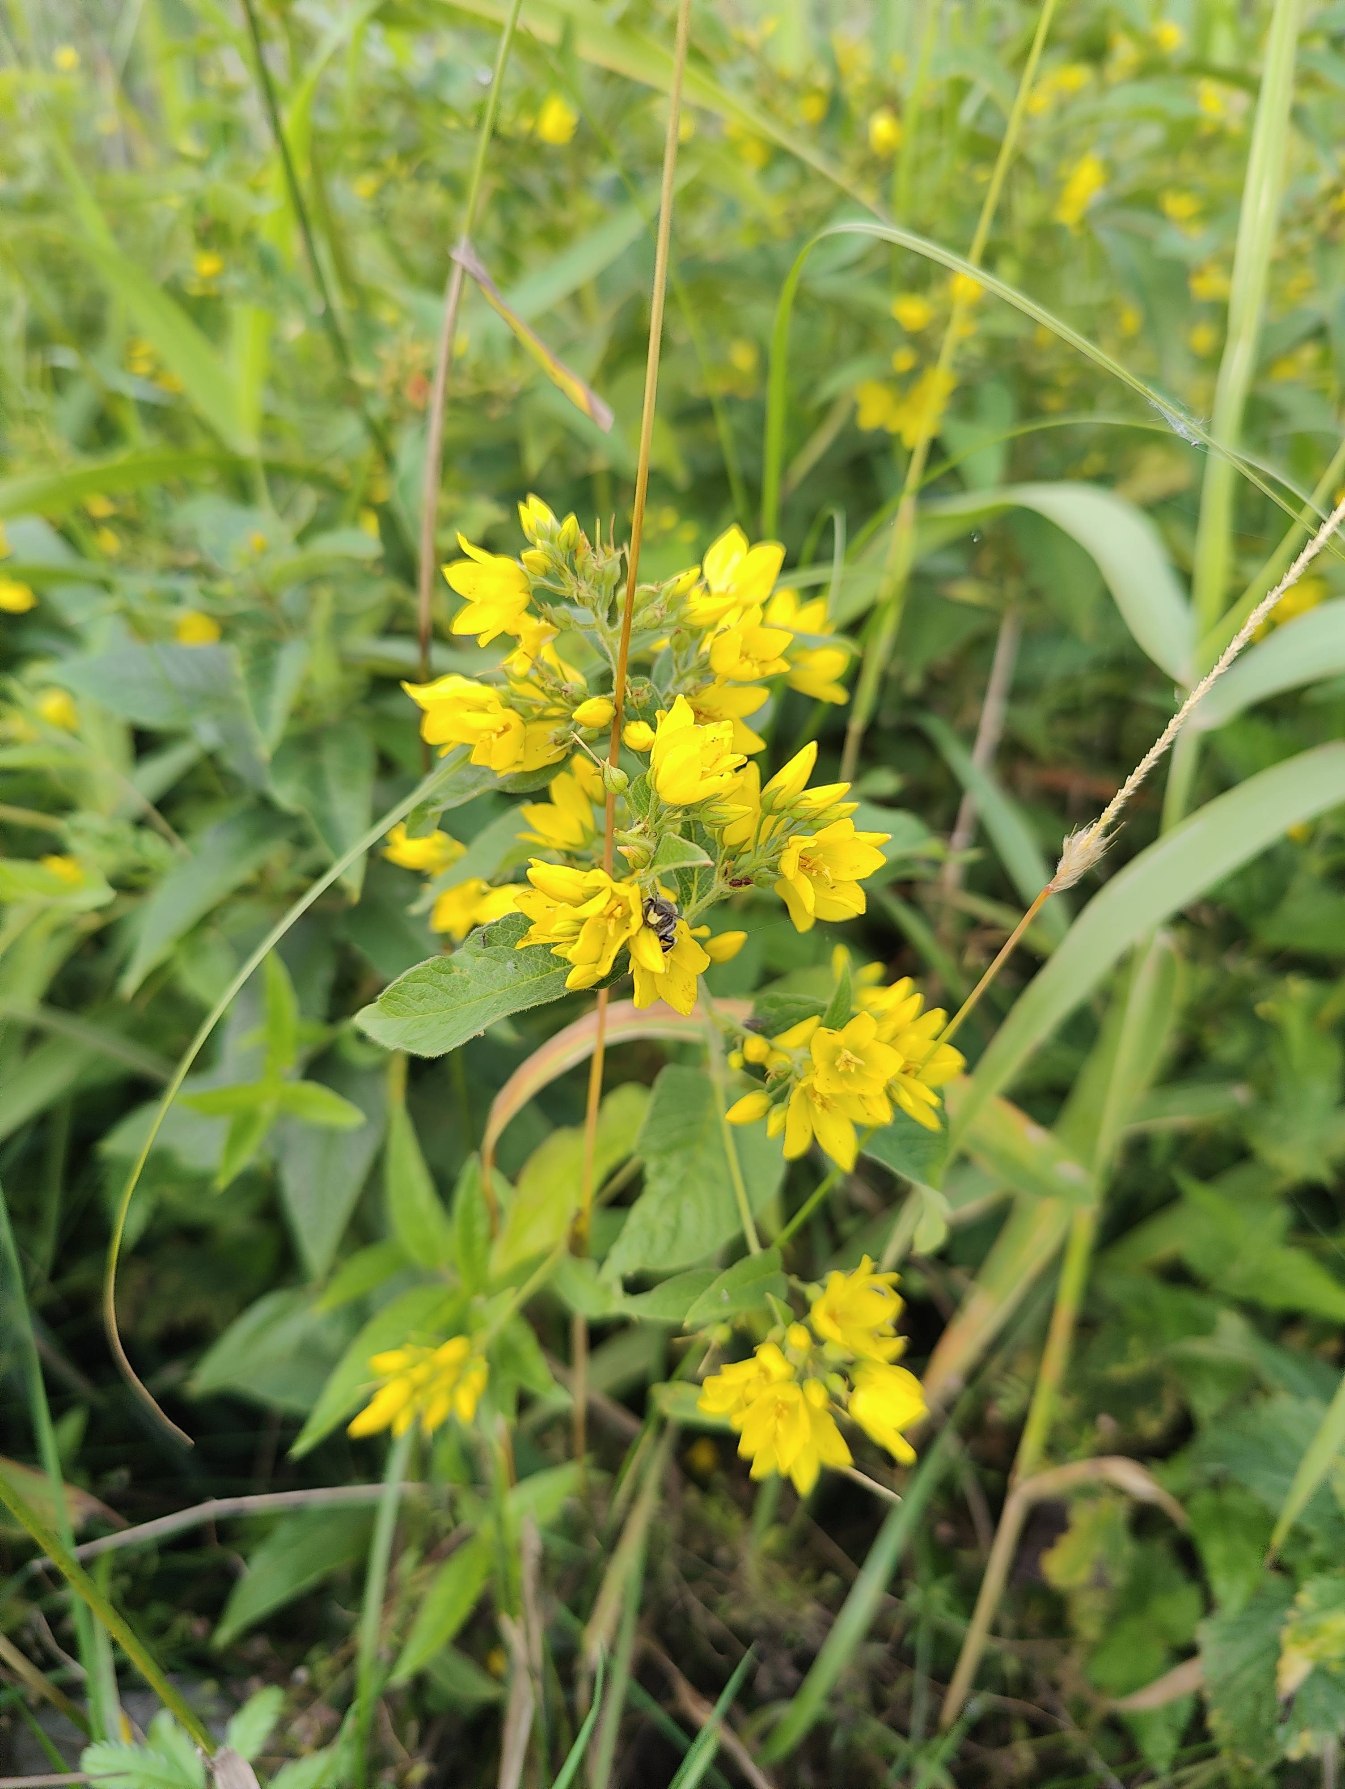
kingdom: Plantae
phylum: Tracheophyta
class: Magnoliopsida
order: Ericales
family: Primulaceae
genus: Lysimachia
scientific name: Lysimachia vulgaris
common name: Almindelig fredløs
